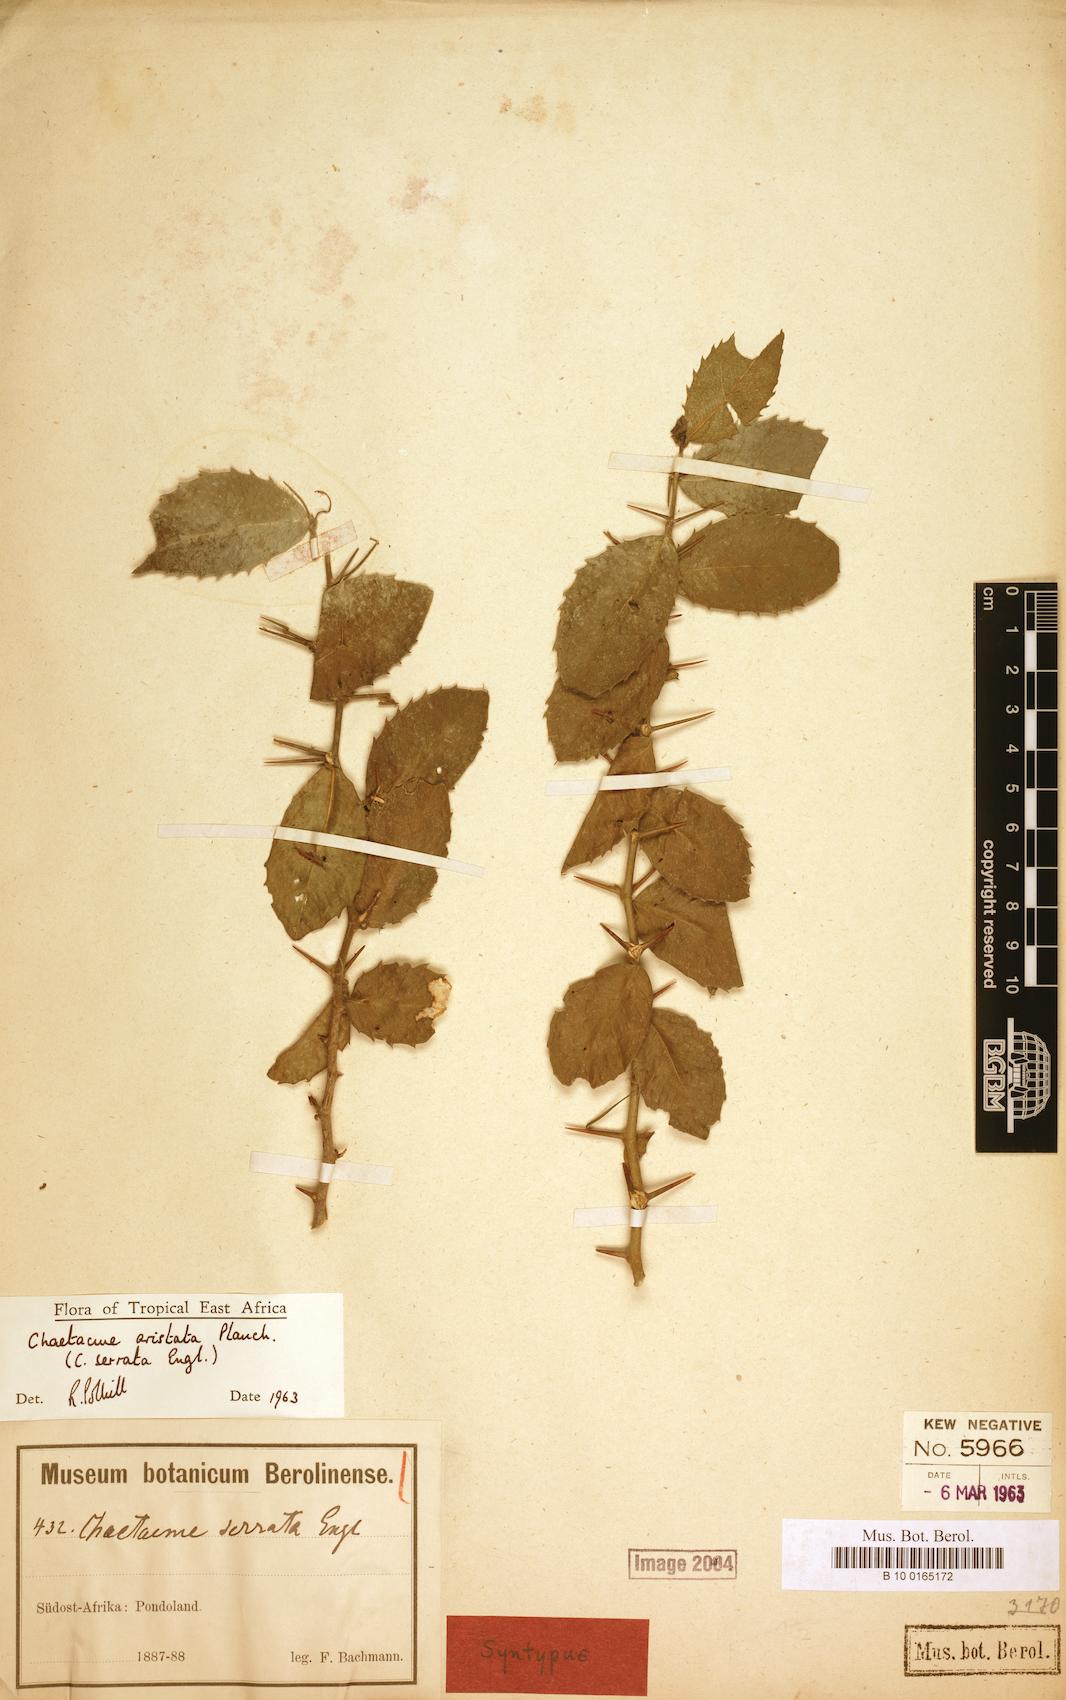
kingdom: Plantae
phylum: Tracheophyta
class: Magnoliopsida
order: Rosales
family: Cannabaceae
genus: Chaetacme
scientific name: Chaetacme
